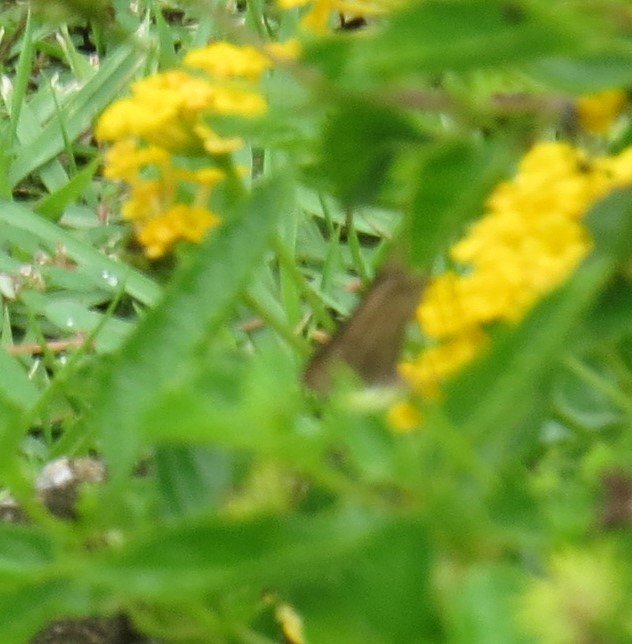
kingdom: Animalia
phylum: Arthropoda
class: Insecta
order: Lepidoptera
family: Hesperiidae
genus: Panoquina
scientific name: Panoquina ocola
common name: Ocola Skipper
